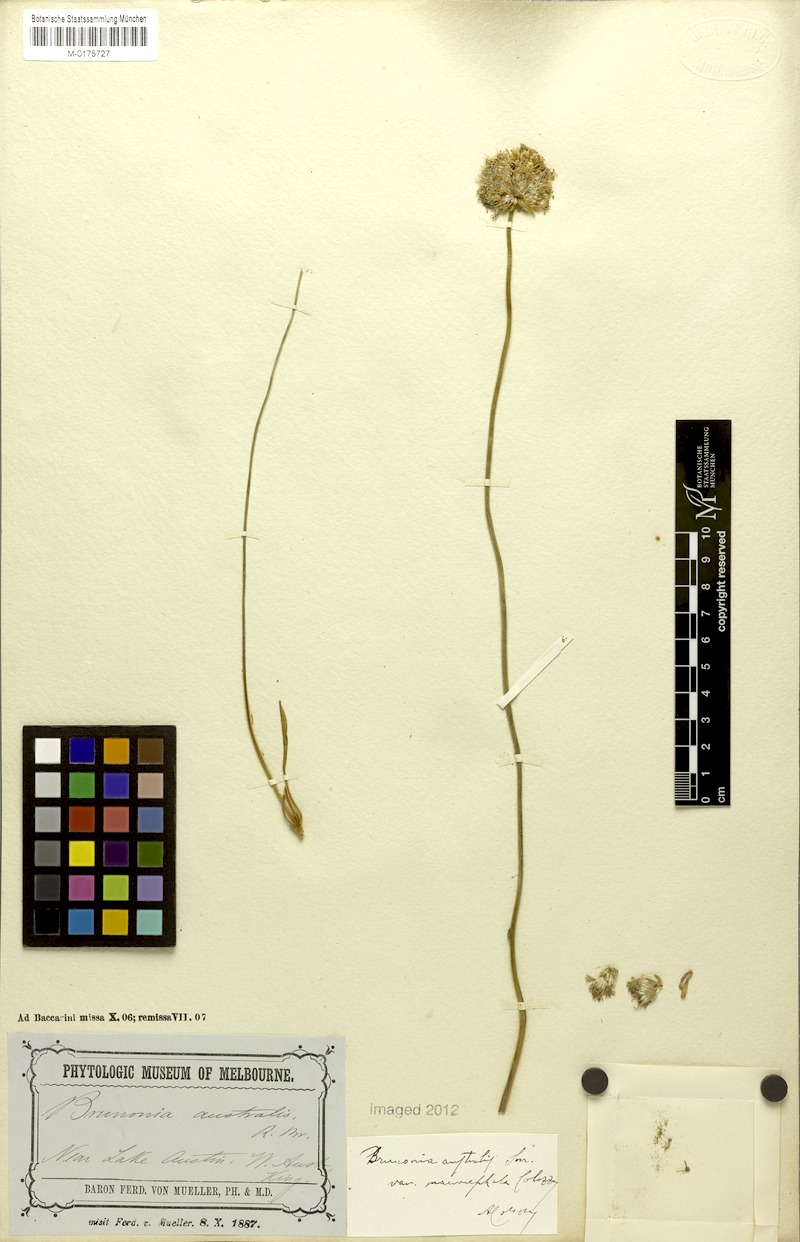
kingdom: Plantae
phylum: Tracheophyta
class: Magnoliopsida
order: Asterales
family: Goodeniaceae
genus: Brunonia
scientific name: Brunonia australis
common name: Blue pincushion
